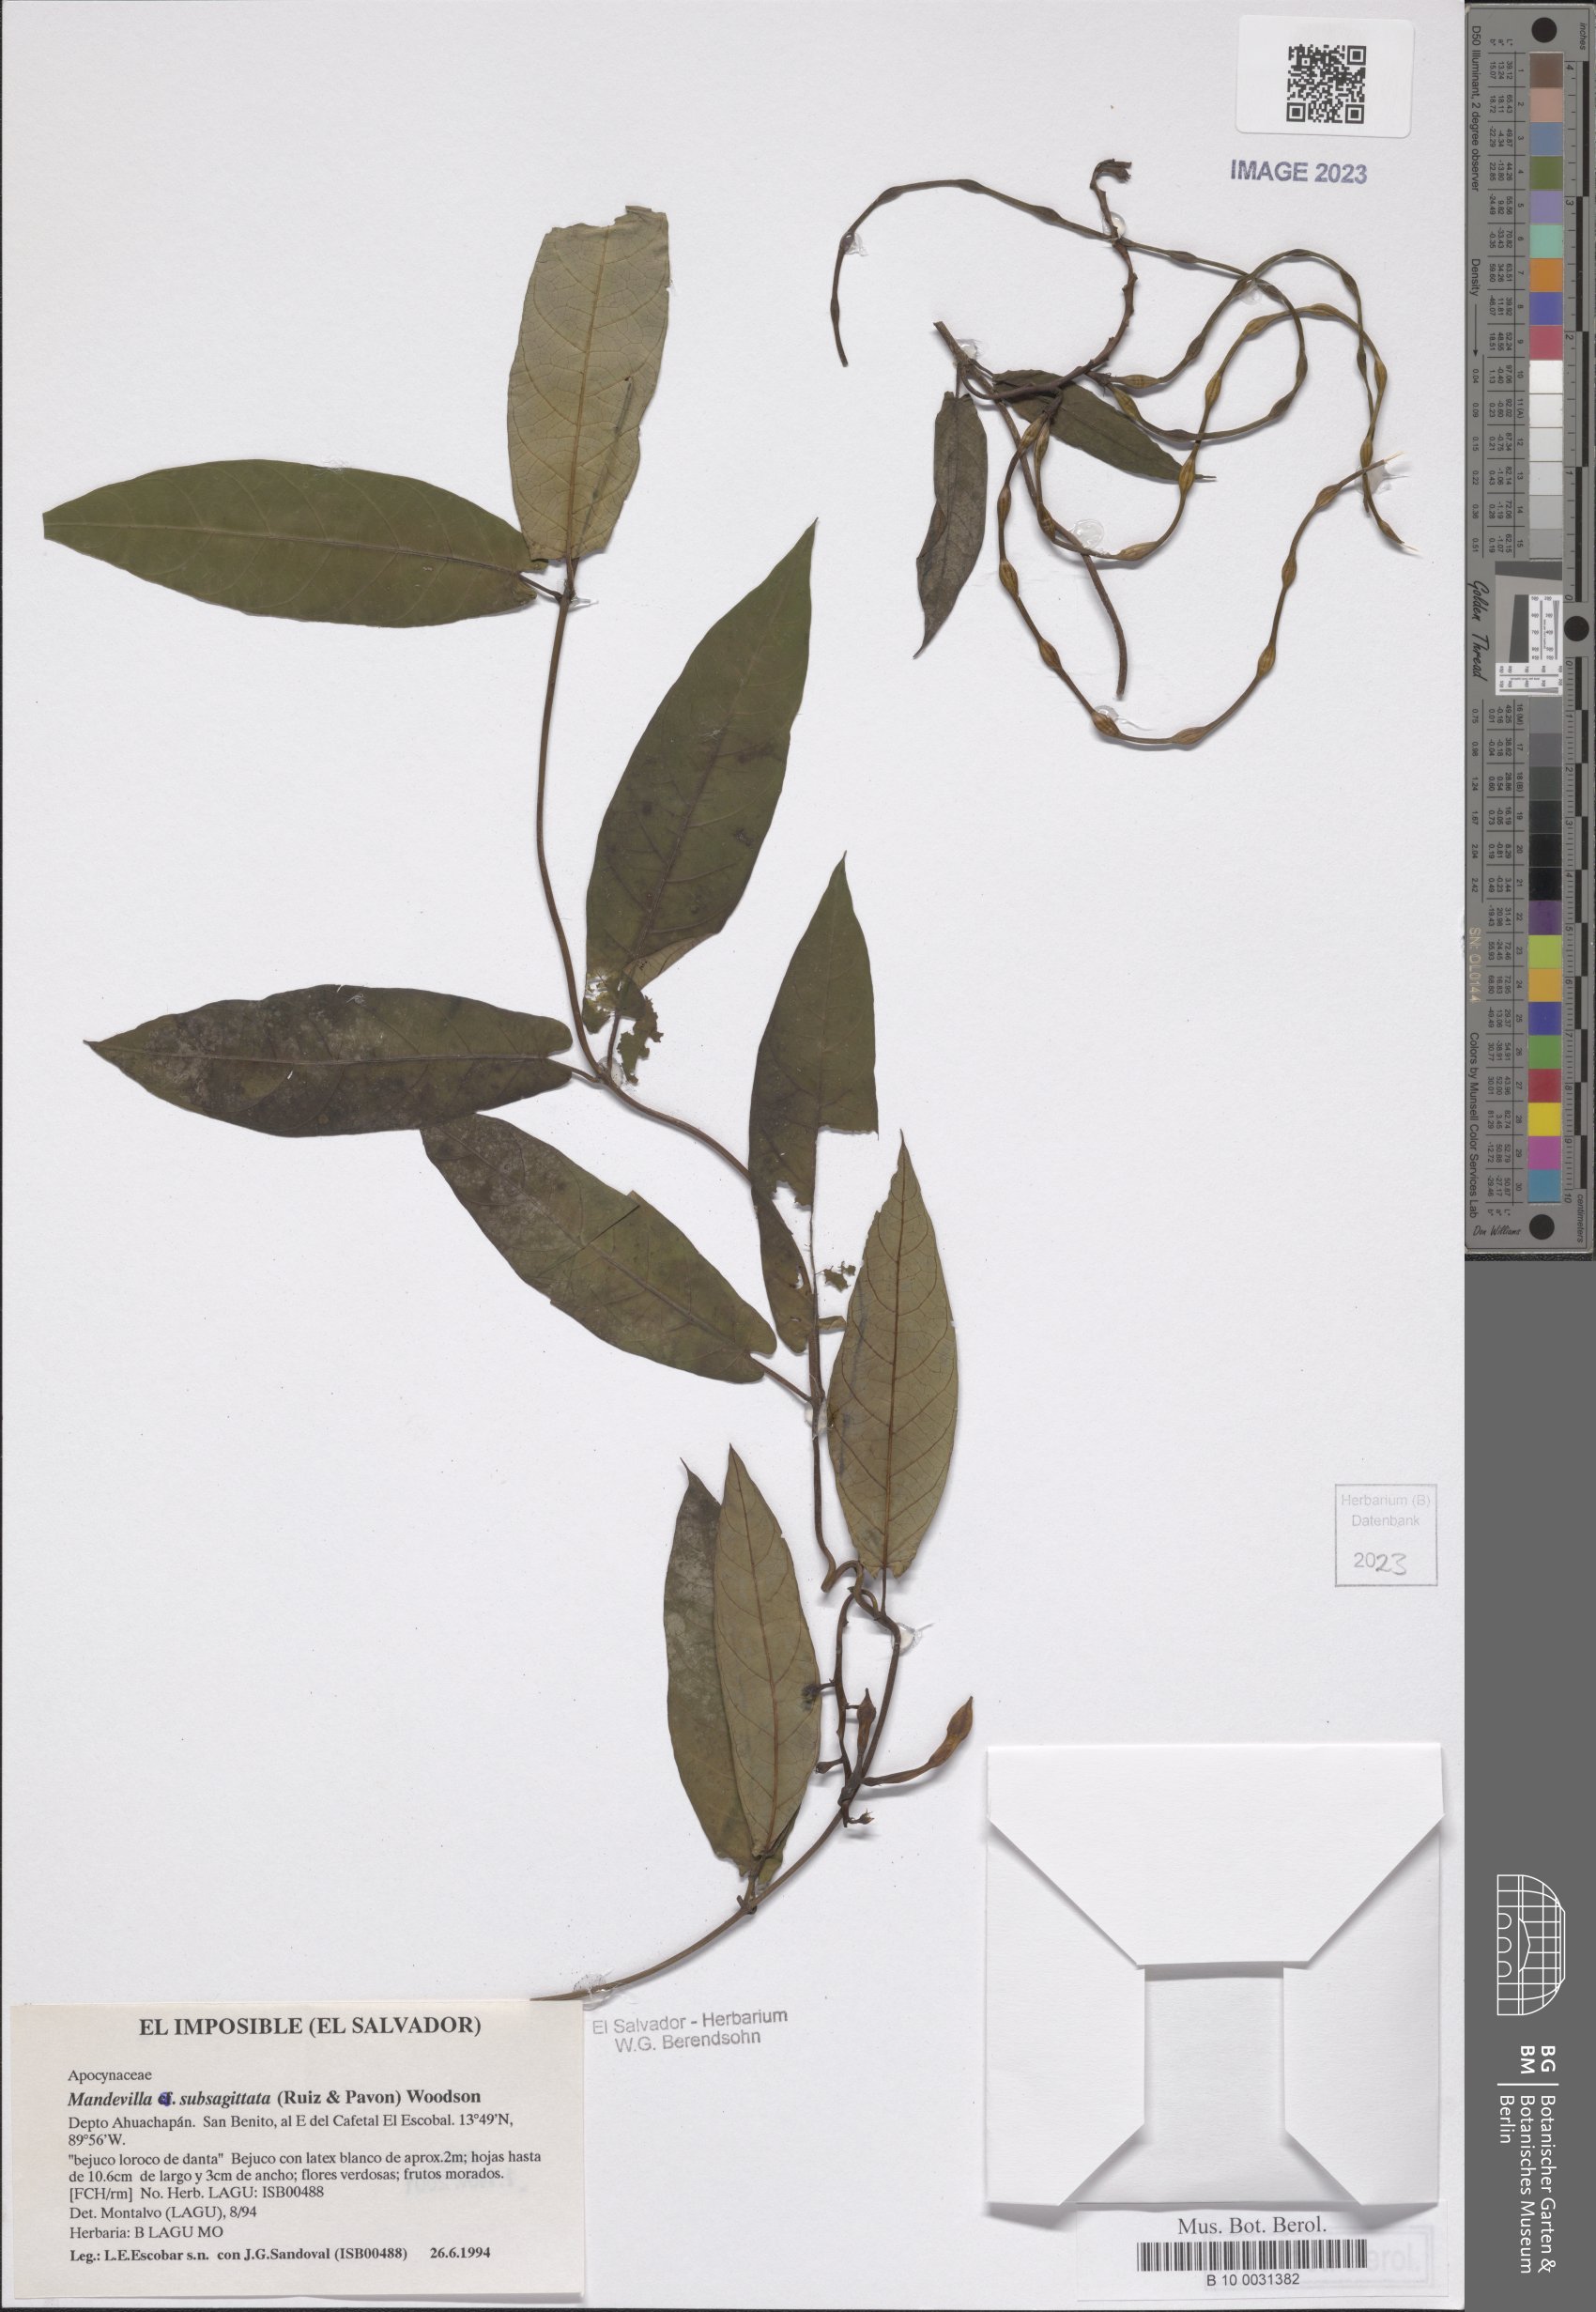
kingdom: Plantae
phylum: Tracheophyta
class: Magnoliopsida
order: Gentianales
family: Apocynaceae
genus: Mandevilla
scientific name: Mandevilla subsagittata
